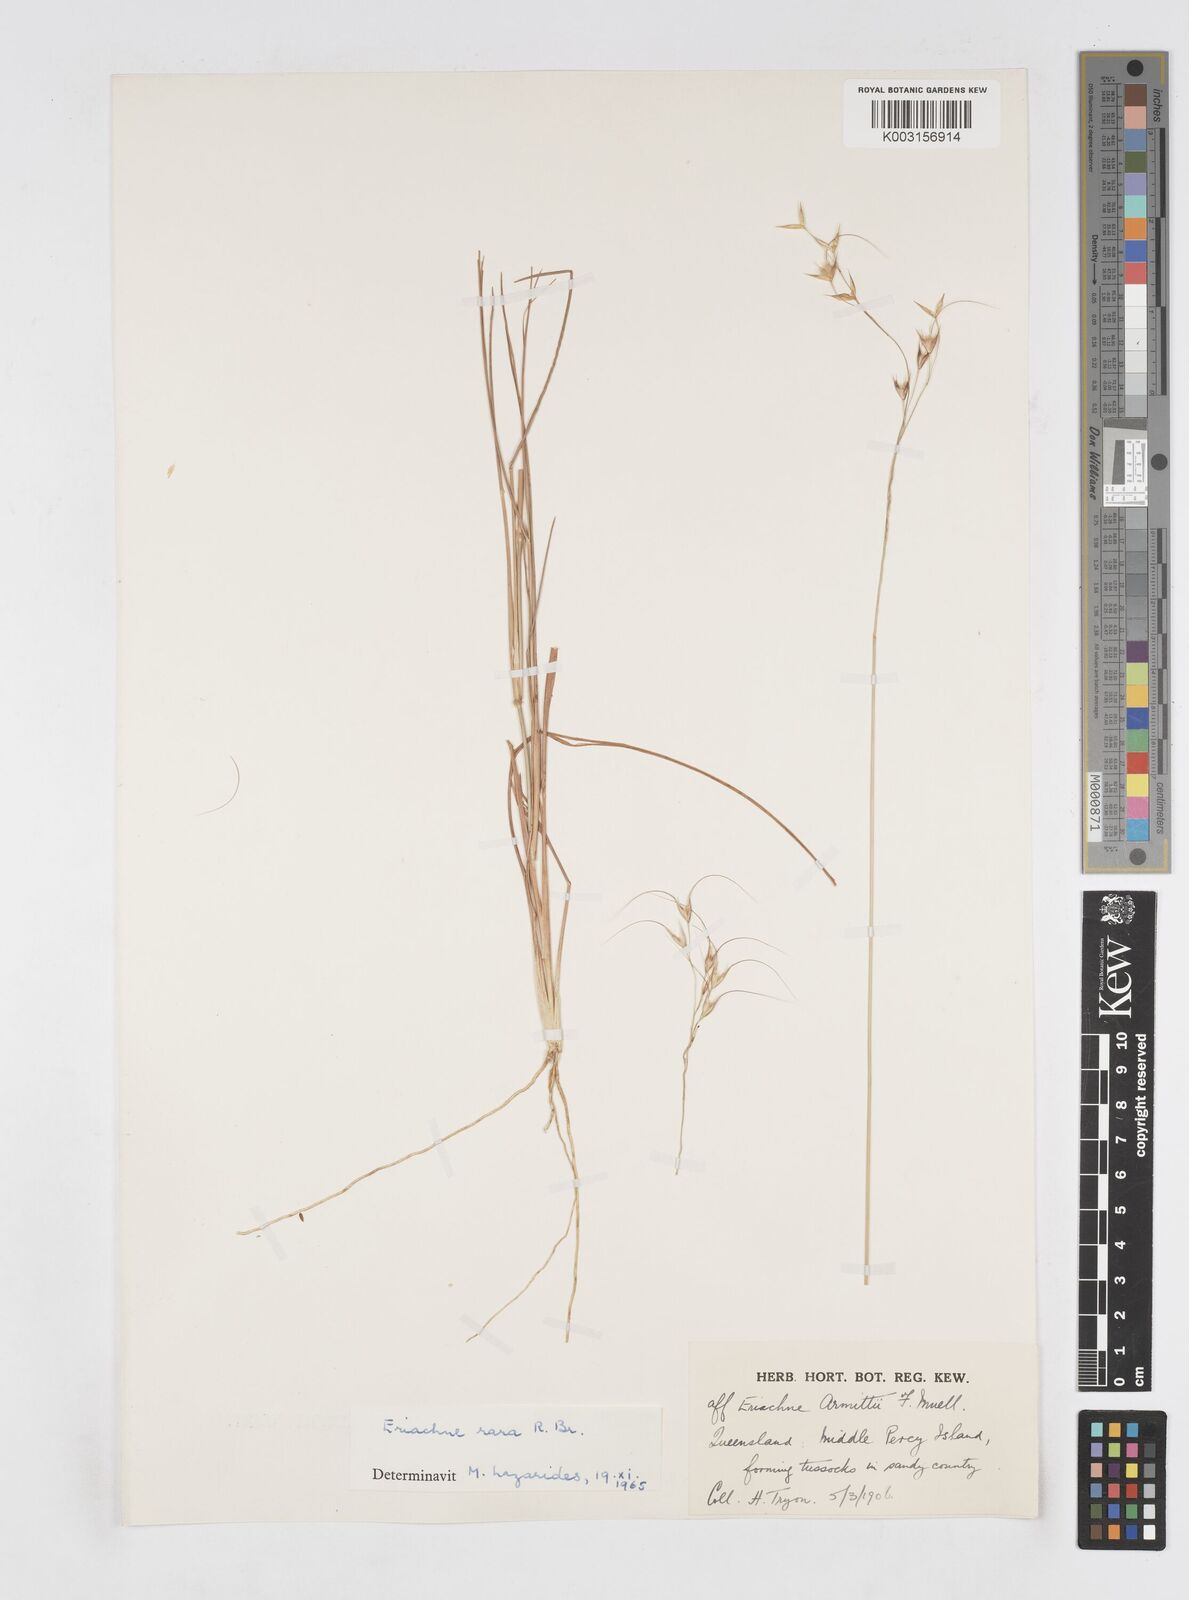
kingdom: Plantae
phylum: Tracheophyta
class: Liliopsida
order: Poales
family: Poaceae
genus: Eriachne
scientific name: Eriachne rara
